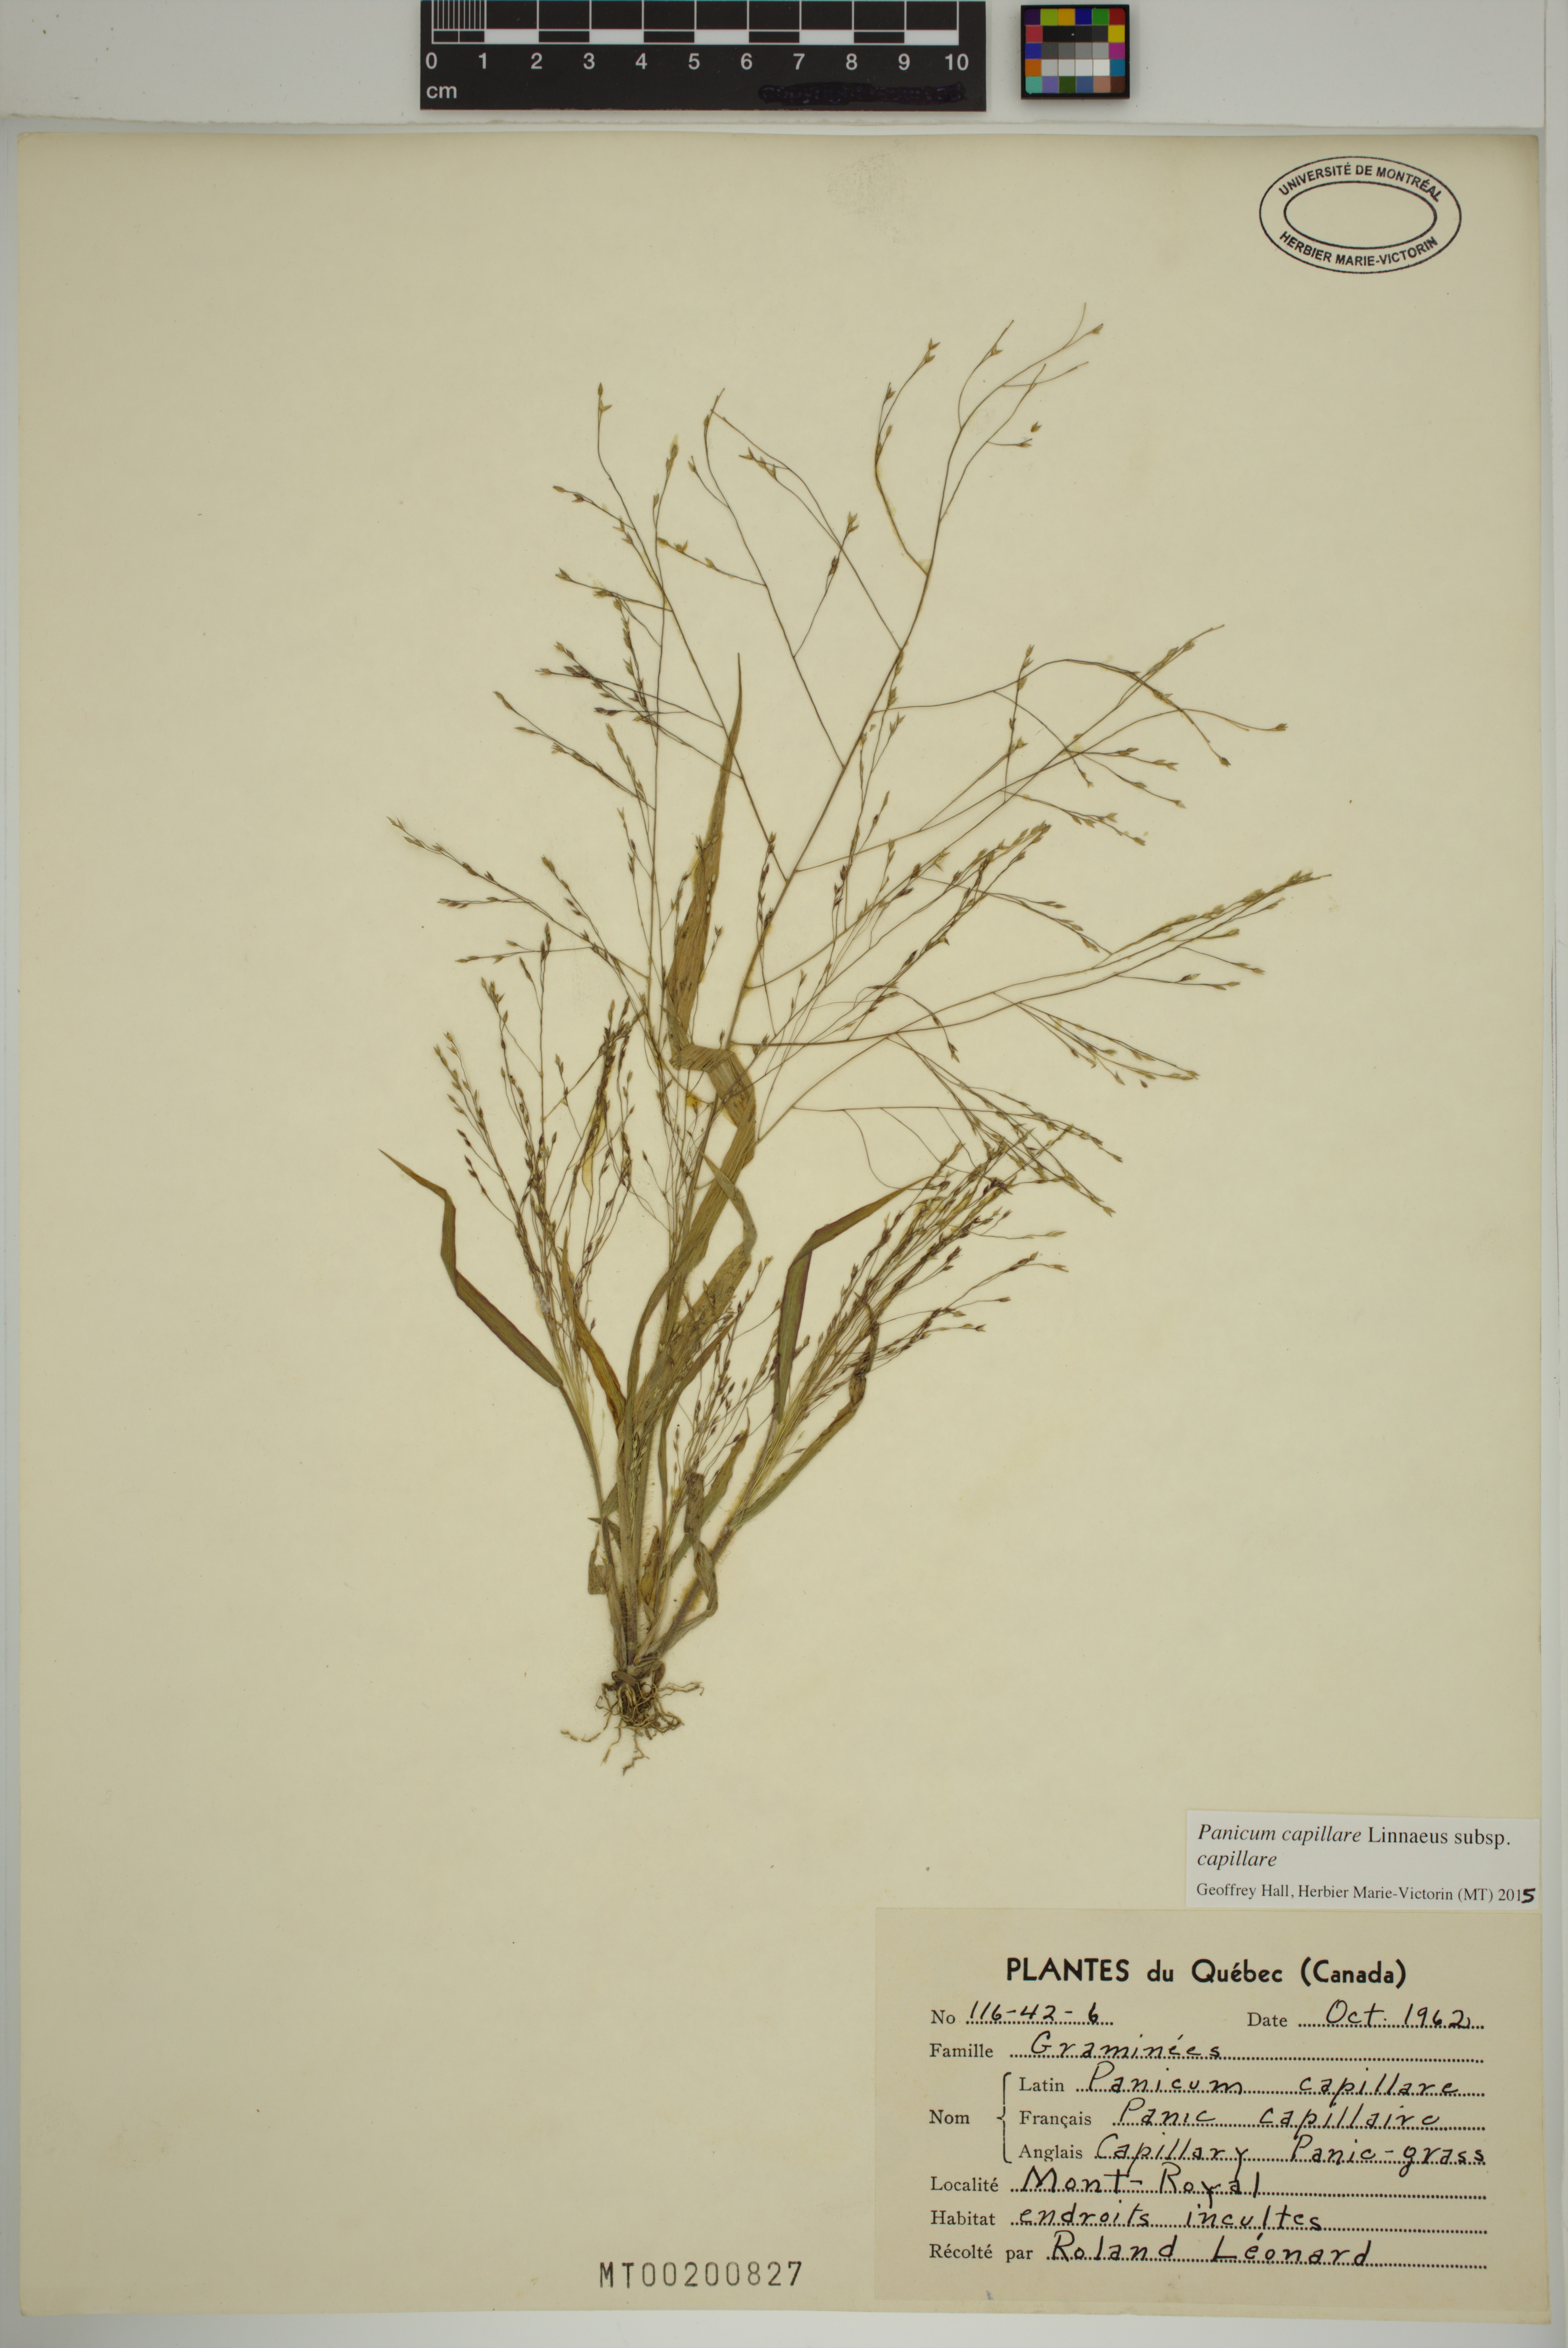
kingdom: Plantae
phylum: Tracheophyta
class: Liliopsida
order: Poales
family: Poaceae
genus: Panicum
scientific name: Panicum capillare
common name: Witch-grass
